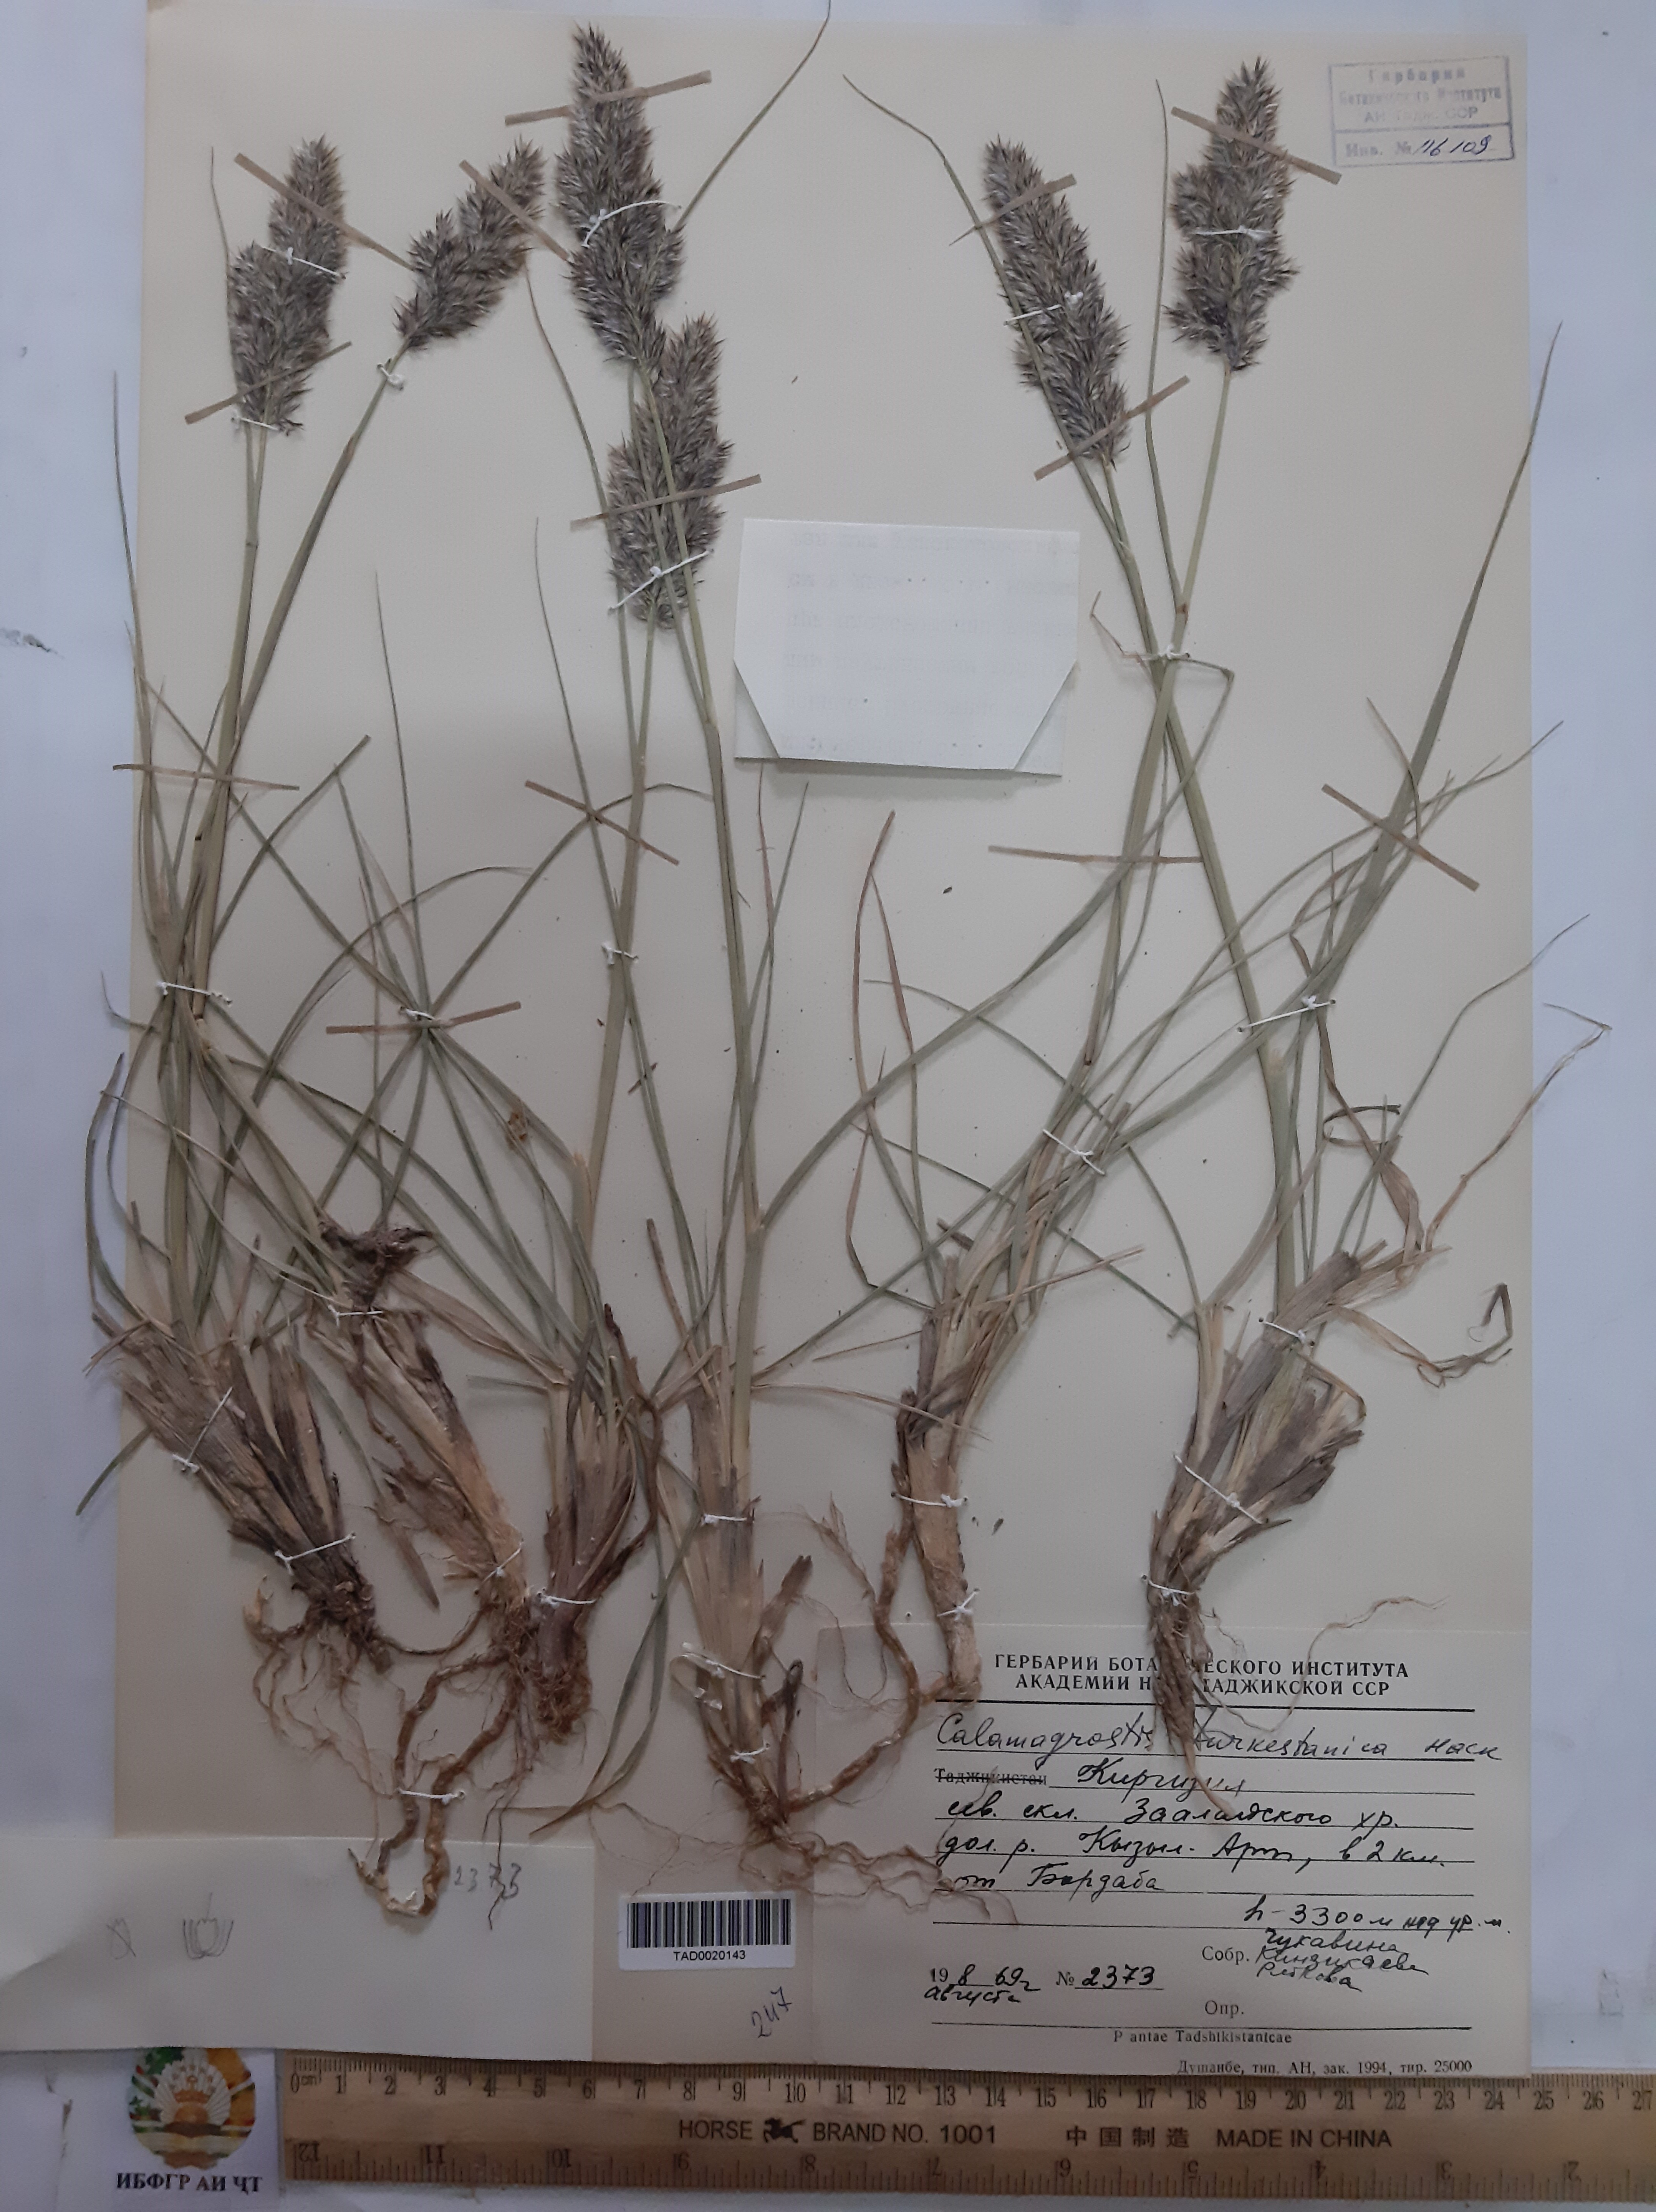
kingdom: Plantae
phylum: Tracheophyta
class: Liliopsida
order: Poales
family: Poaceae
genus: Calamagrostis
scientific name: Calamagrostis turkestanica
